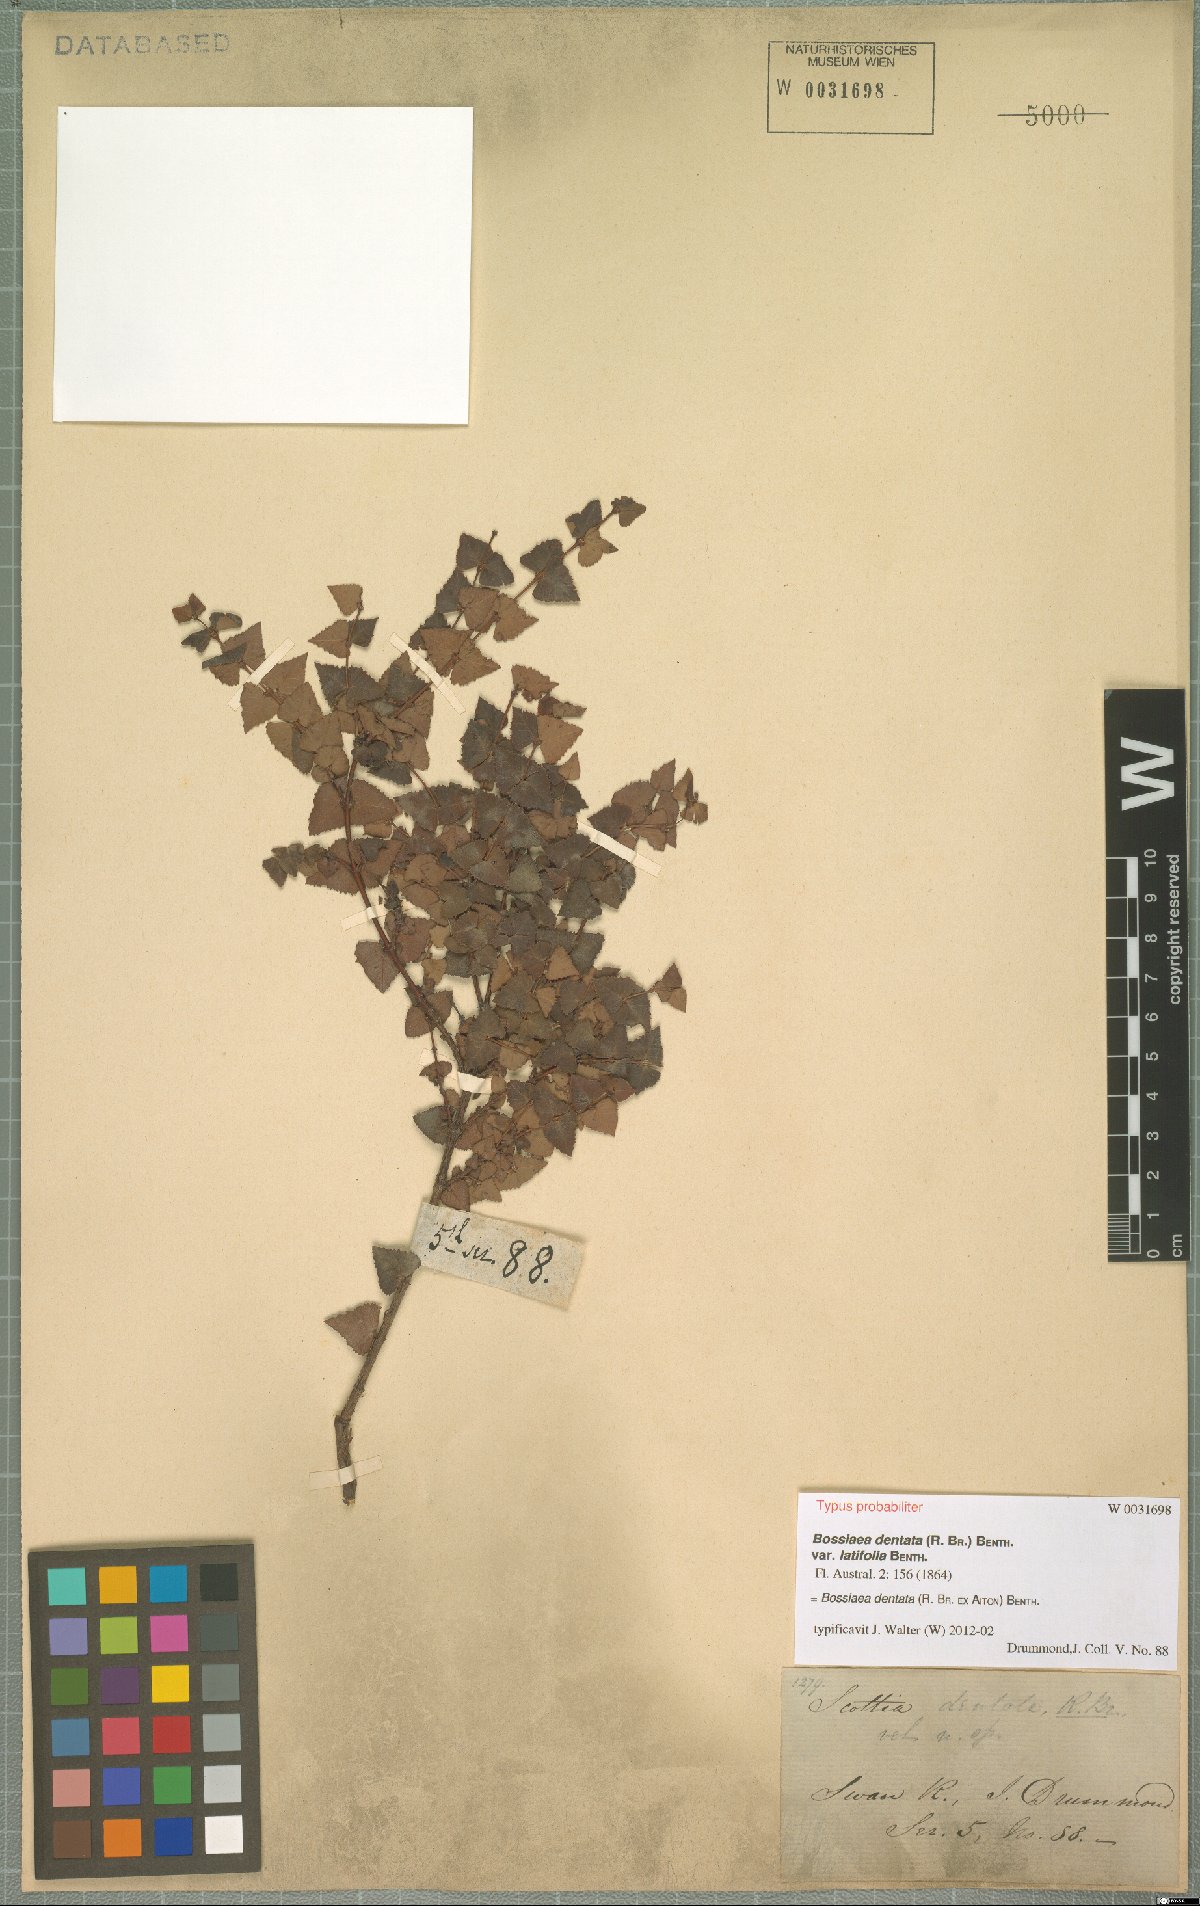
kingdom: Plantae
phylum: Tracheophyta
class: Magnoliopsida
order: Fabales
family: Fabaceae
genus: Bossiaea
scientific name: Bossiaea dentata
